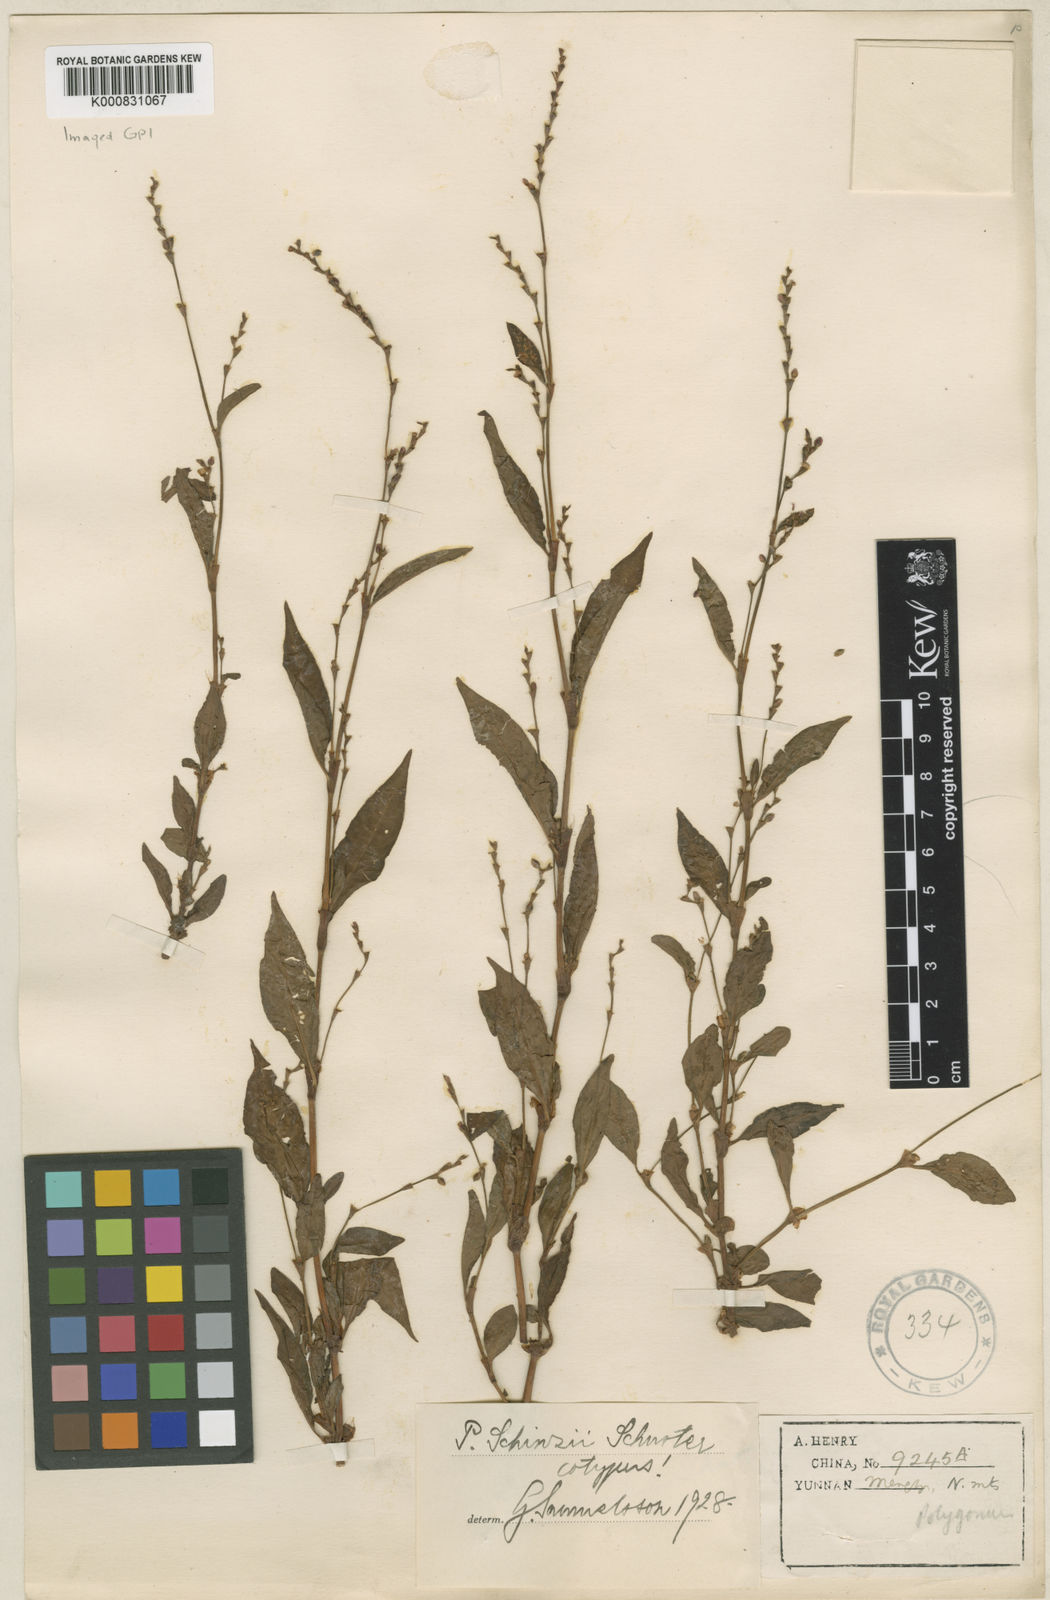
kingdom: Plantae
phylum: Tracheophyta
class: Magnoliopsida
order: Caryophyllales
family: Polygonaceae
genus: Persicaria
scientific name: Persicaria
